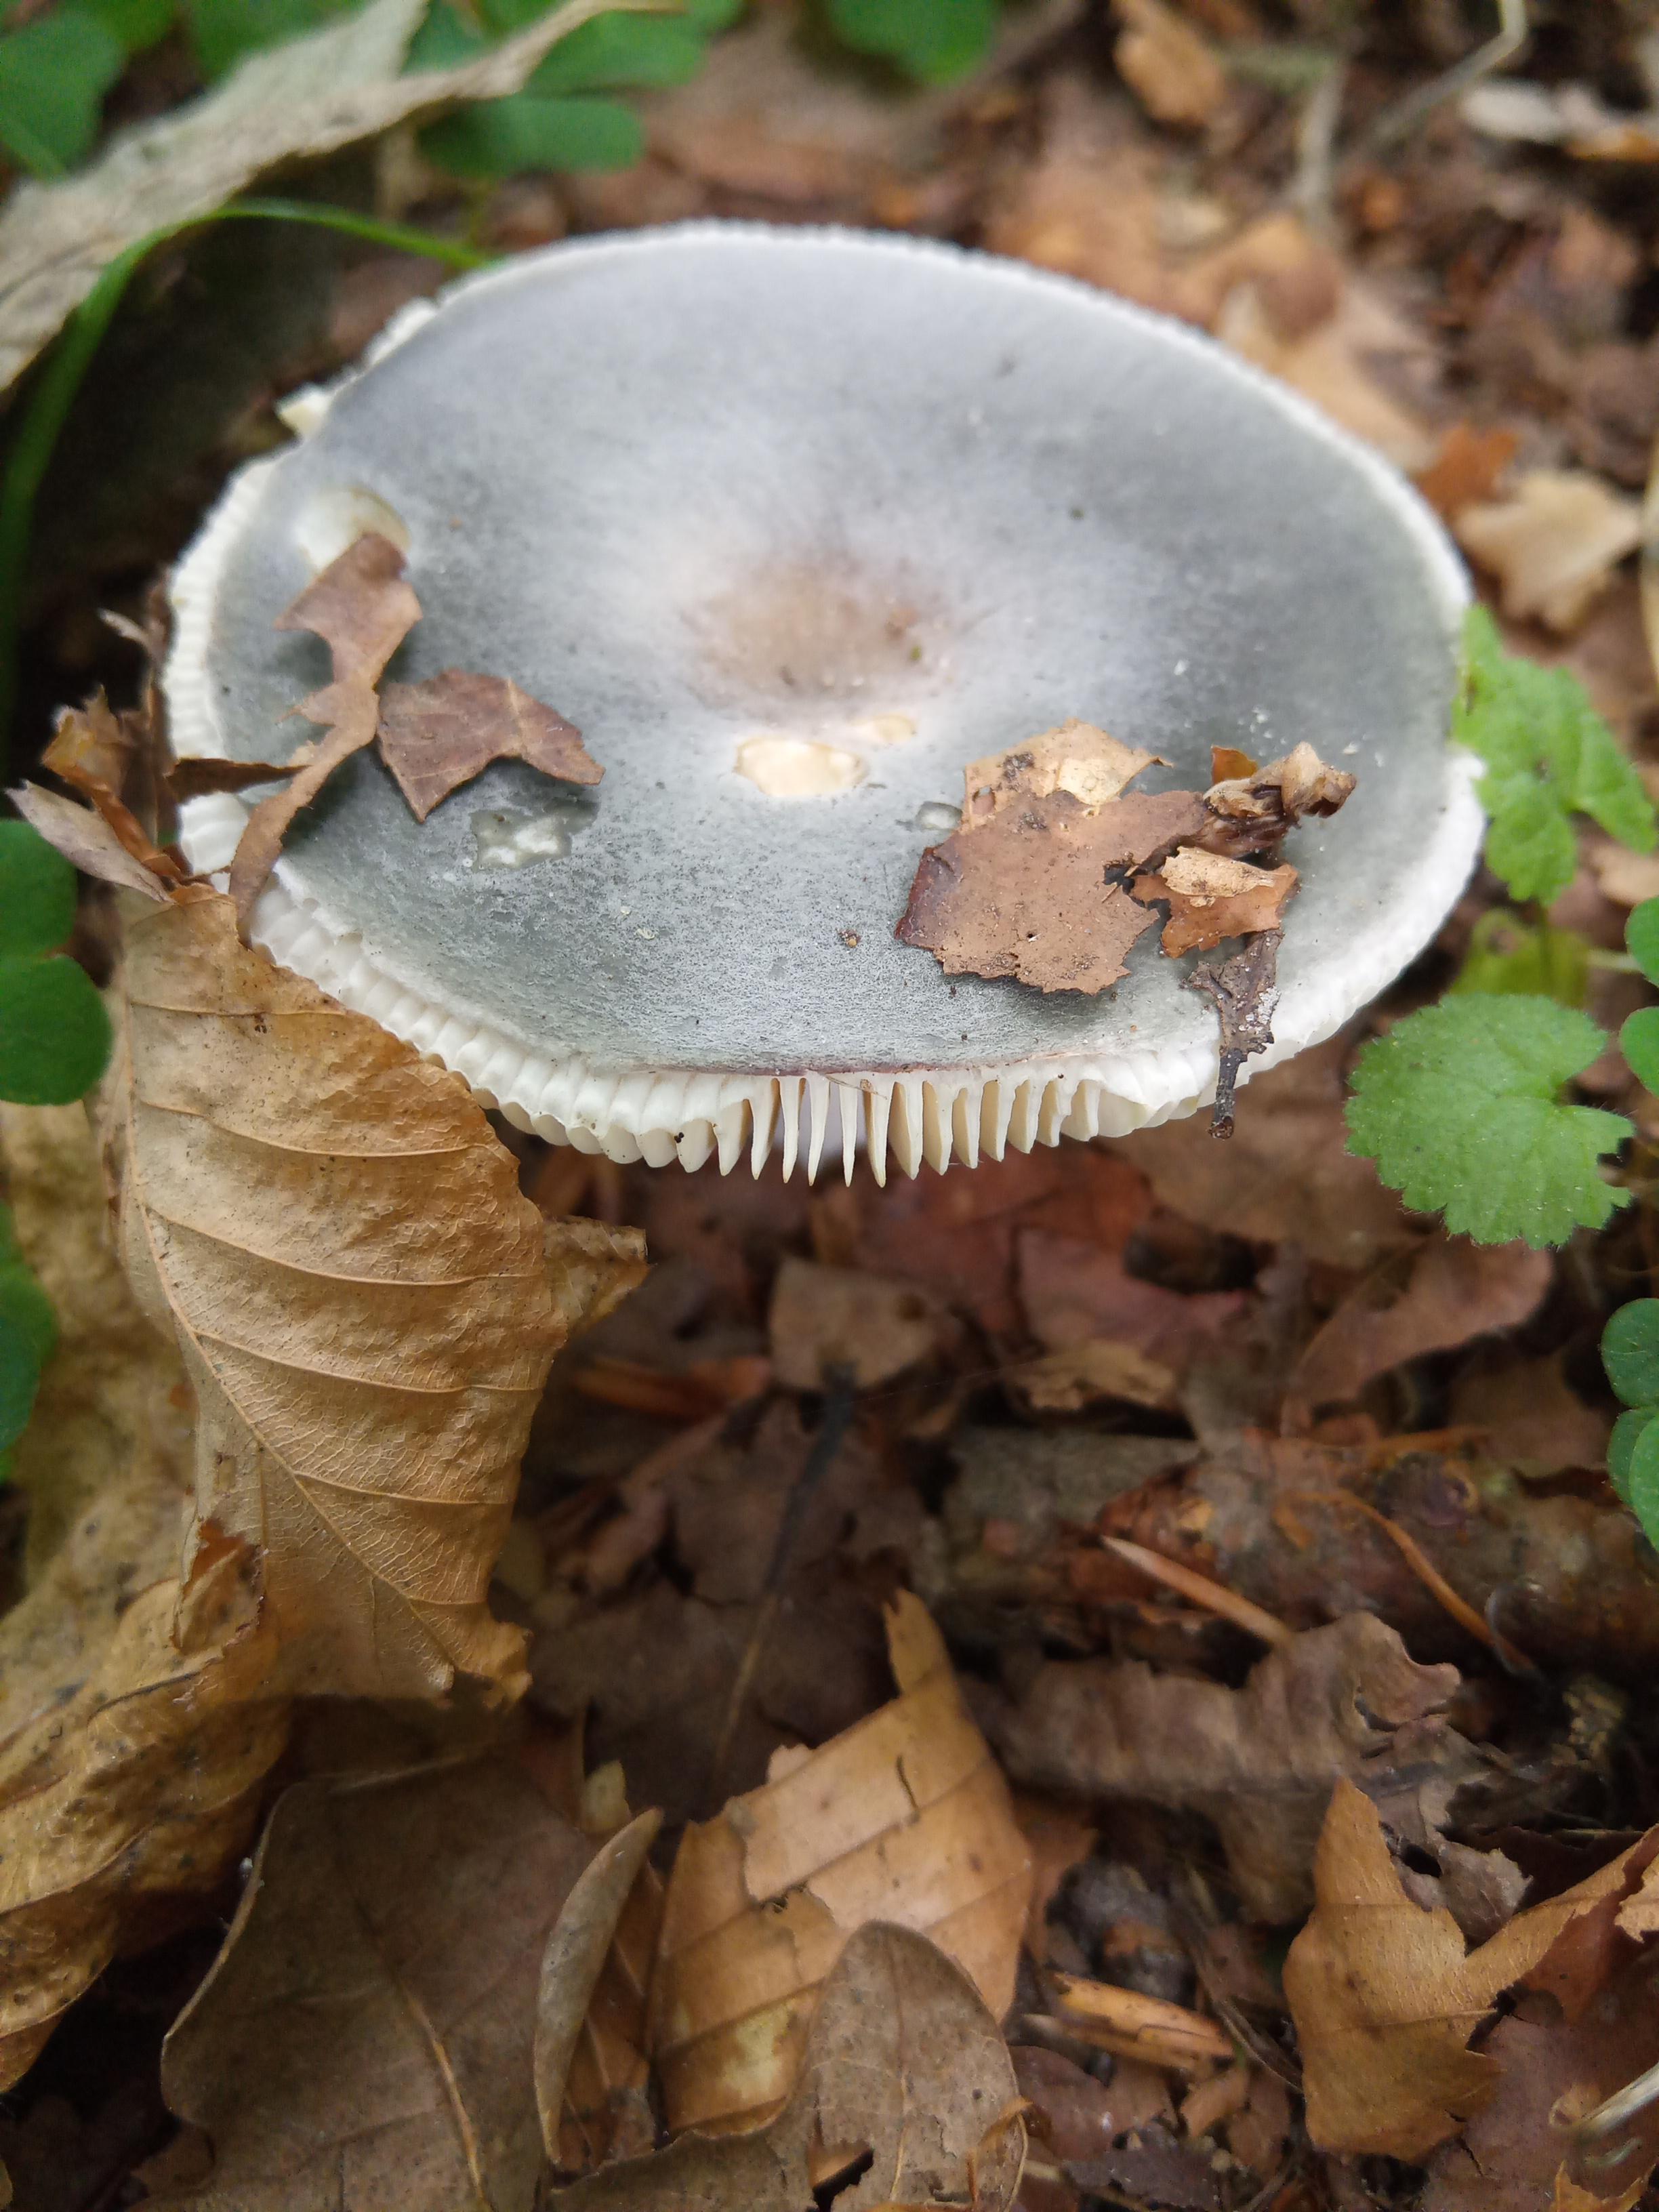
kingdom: Fungi
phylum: Basidiomycota
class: Agaricomycetes
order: Russulales
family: Russulaceae
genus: Russula
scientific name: Russula
